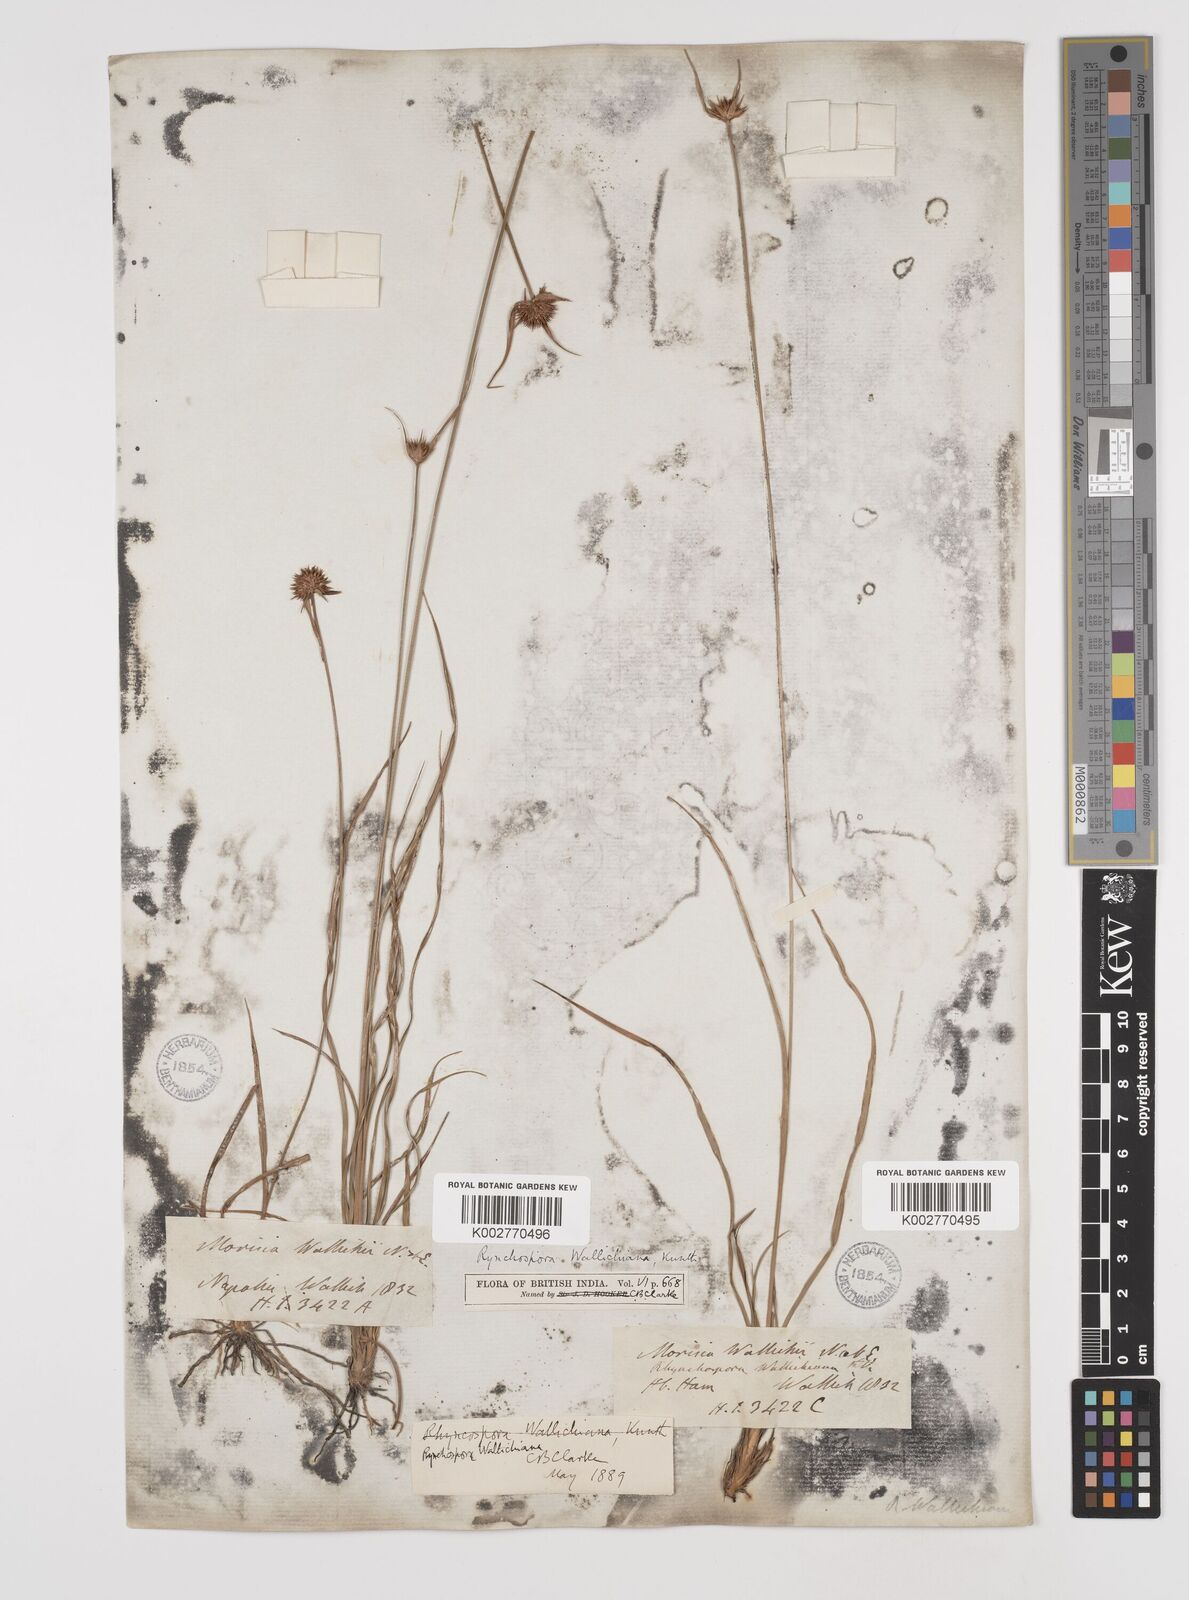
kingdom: Plantae
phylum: Tracheophyta
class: Liliopsida
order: Poales
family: Cyperaceae
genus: Rhynchospora
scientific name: Rhynchospora rubra
